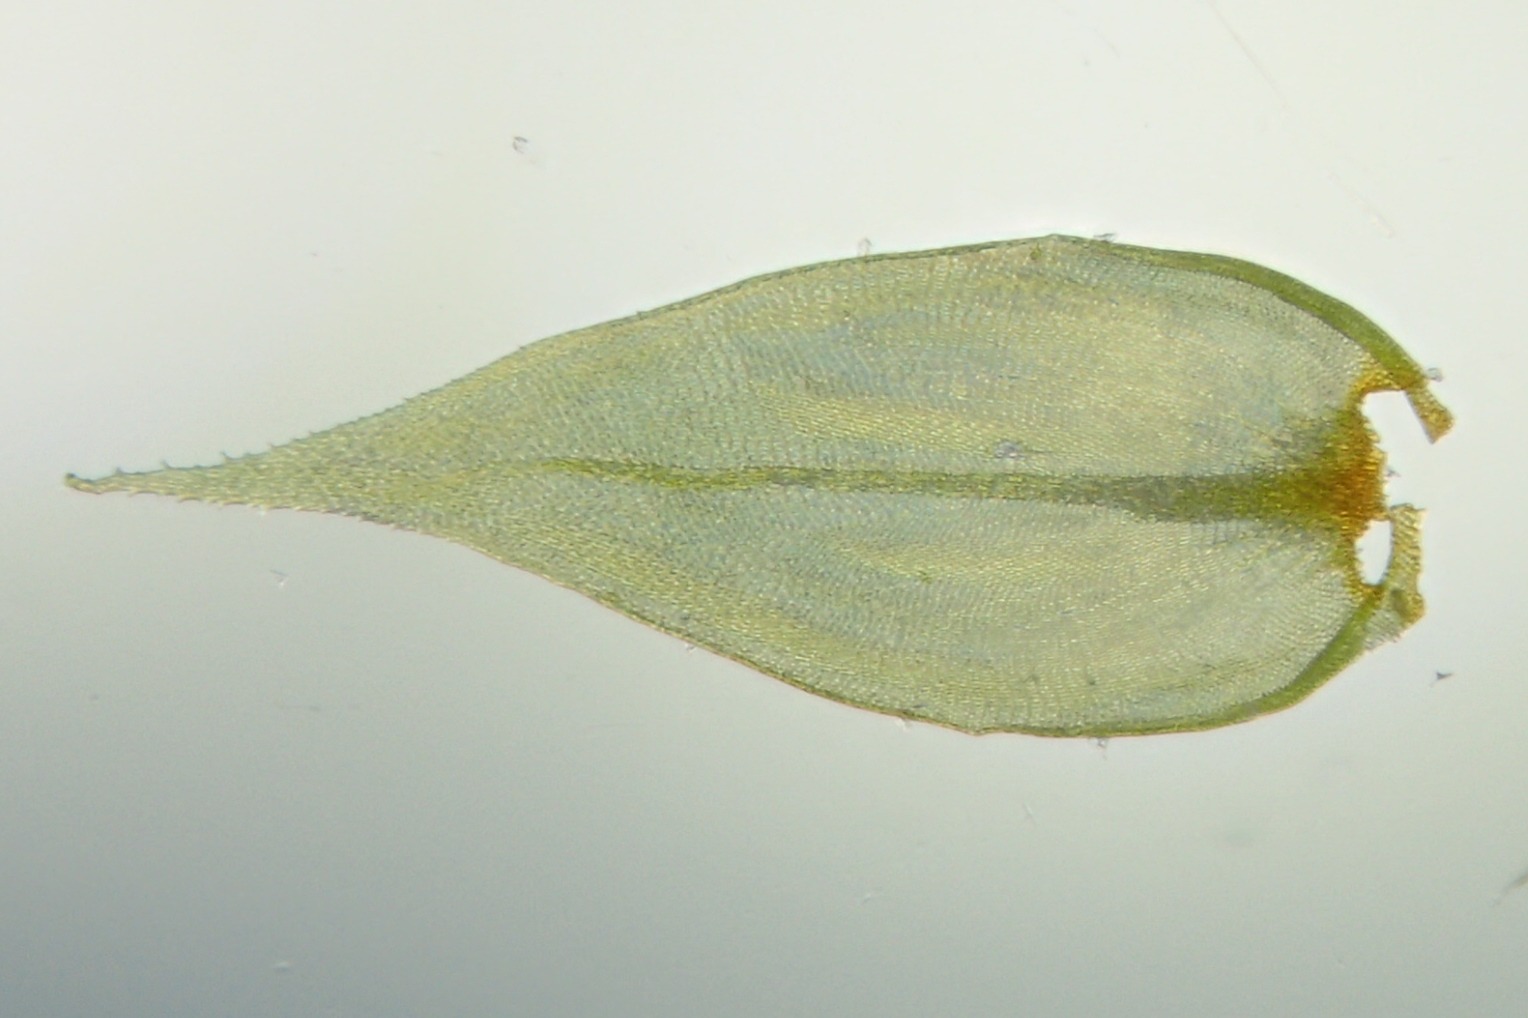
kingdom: Plantae
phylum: Bryophyta
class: Bryopsida
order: Hypnales
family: Antitrichiaceae
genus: Antitrichia
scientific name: Antitrichia curtipendula
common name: Åben krogtand
